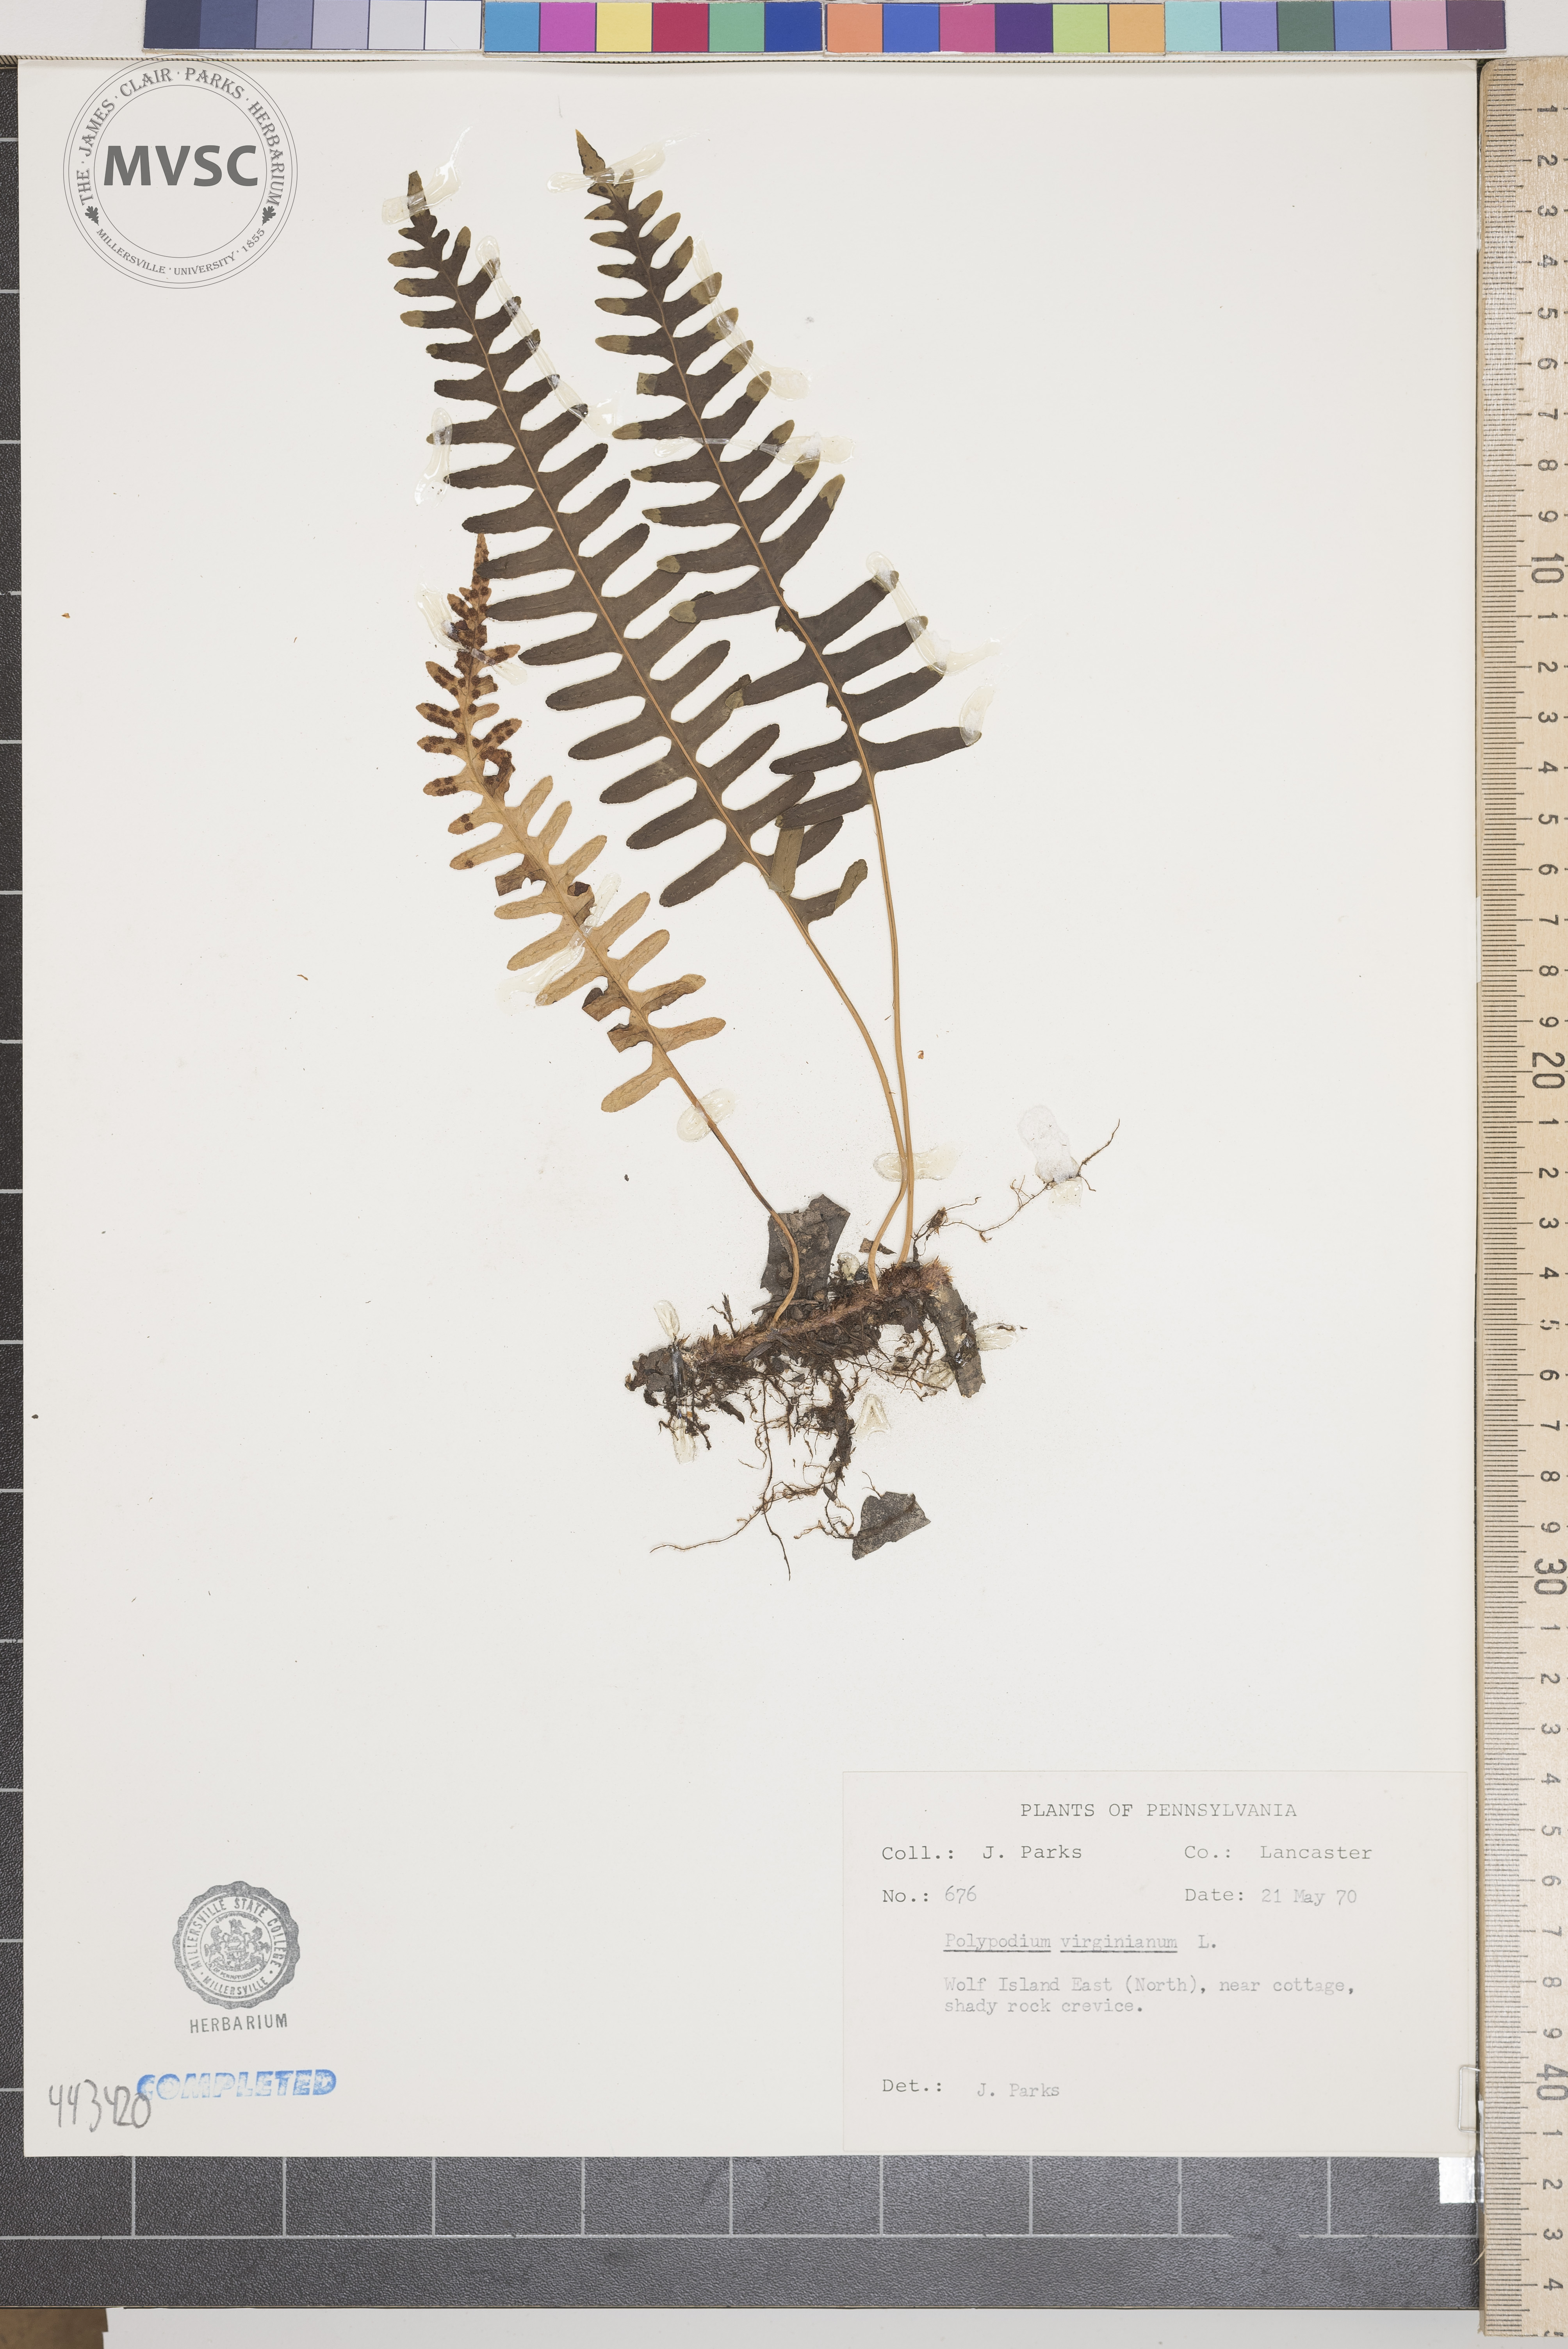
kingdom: Plantae
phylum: Tracheophyta
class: Polypodiopsida
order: Polypodiales
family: Polypodiaceae
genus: Polypodium
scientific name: Polypodium virginianum
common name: American wall fern
